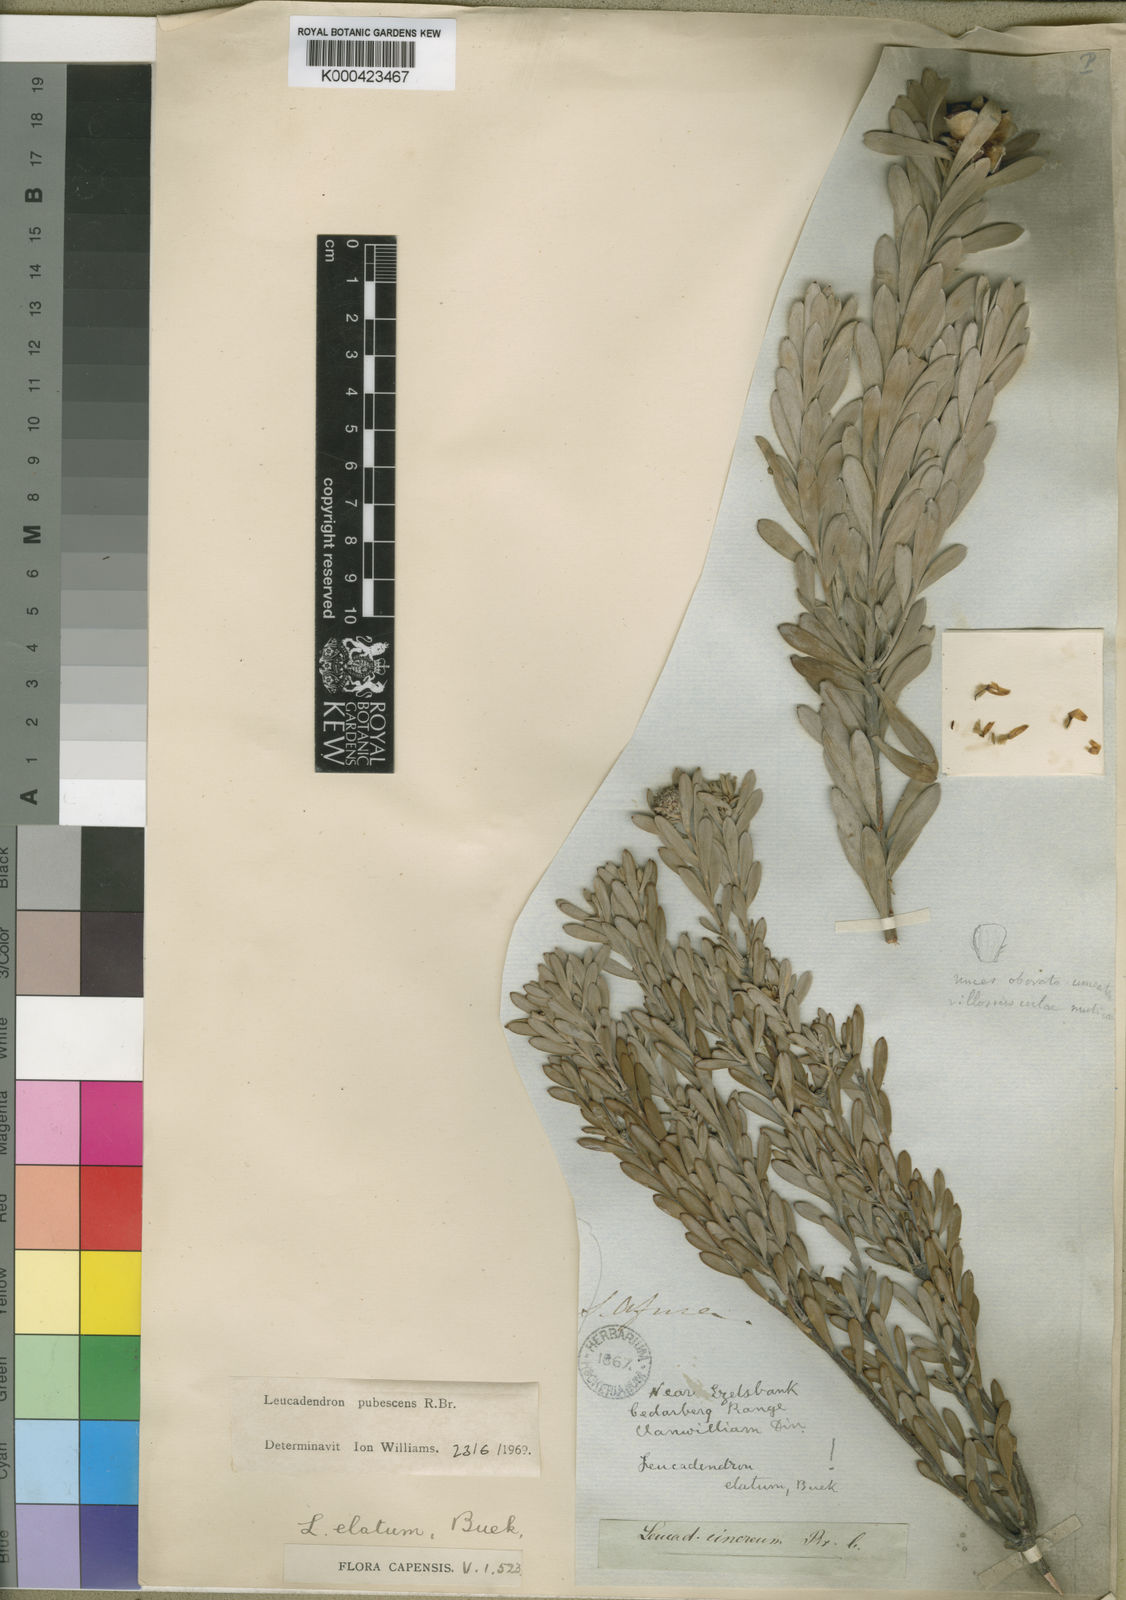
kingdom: Plantae
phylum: Tracheophyta
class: Magnoliopsida
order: Proteales
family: Proteaceae
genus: Leucadendron
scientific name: Leucadendron pubescens
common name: Grey conebush
